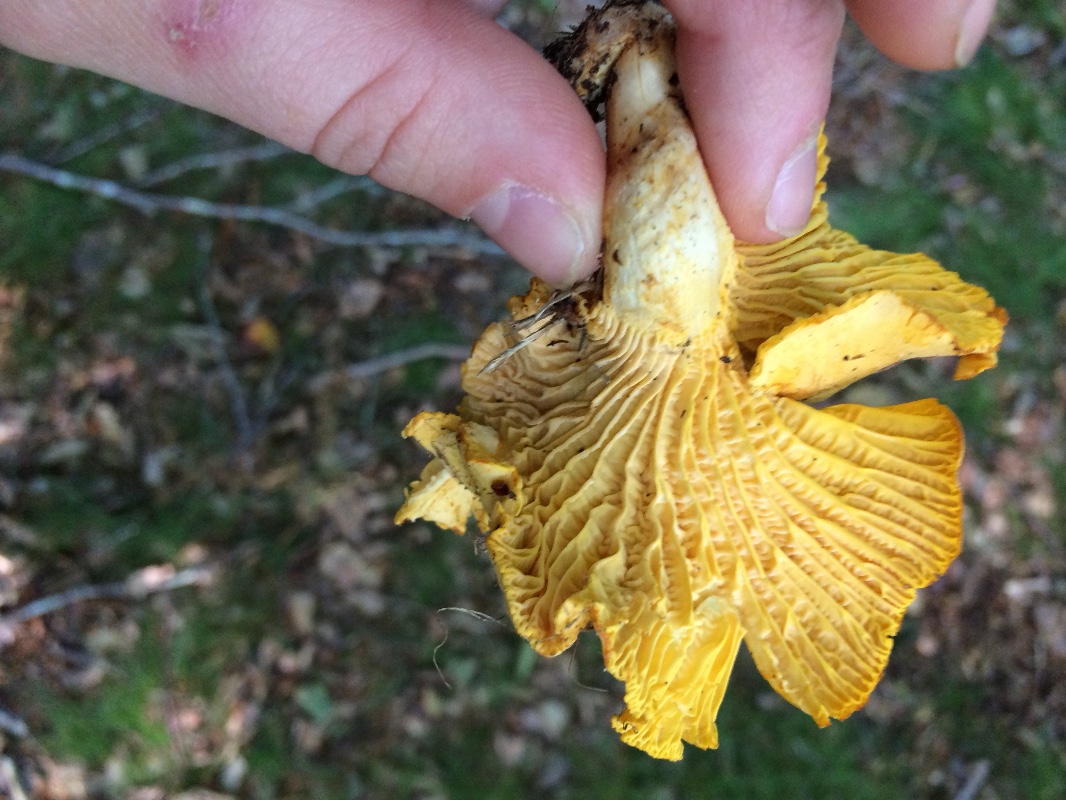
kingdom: Fungi
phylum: Basidiomycota
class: Agaricomycetes
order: Cantharellales
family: Hydnaceae
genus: Cantharellus
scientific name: Cantharellus
